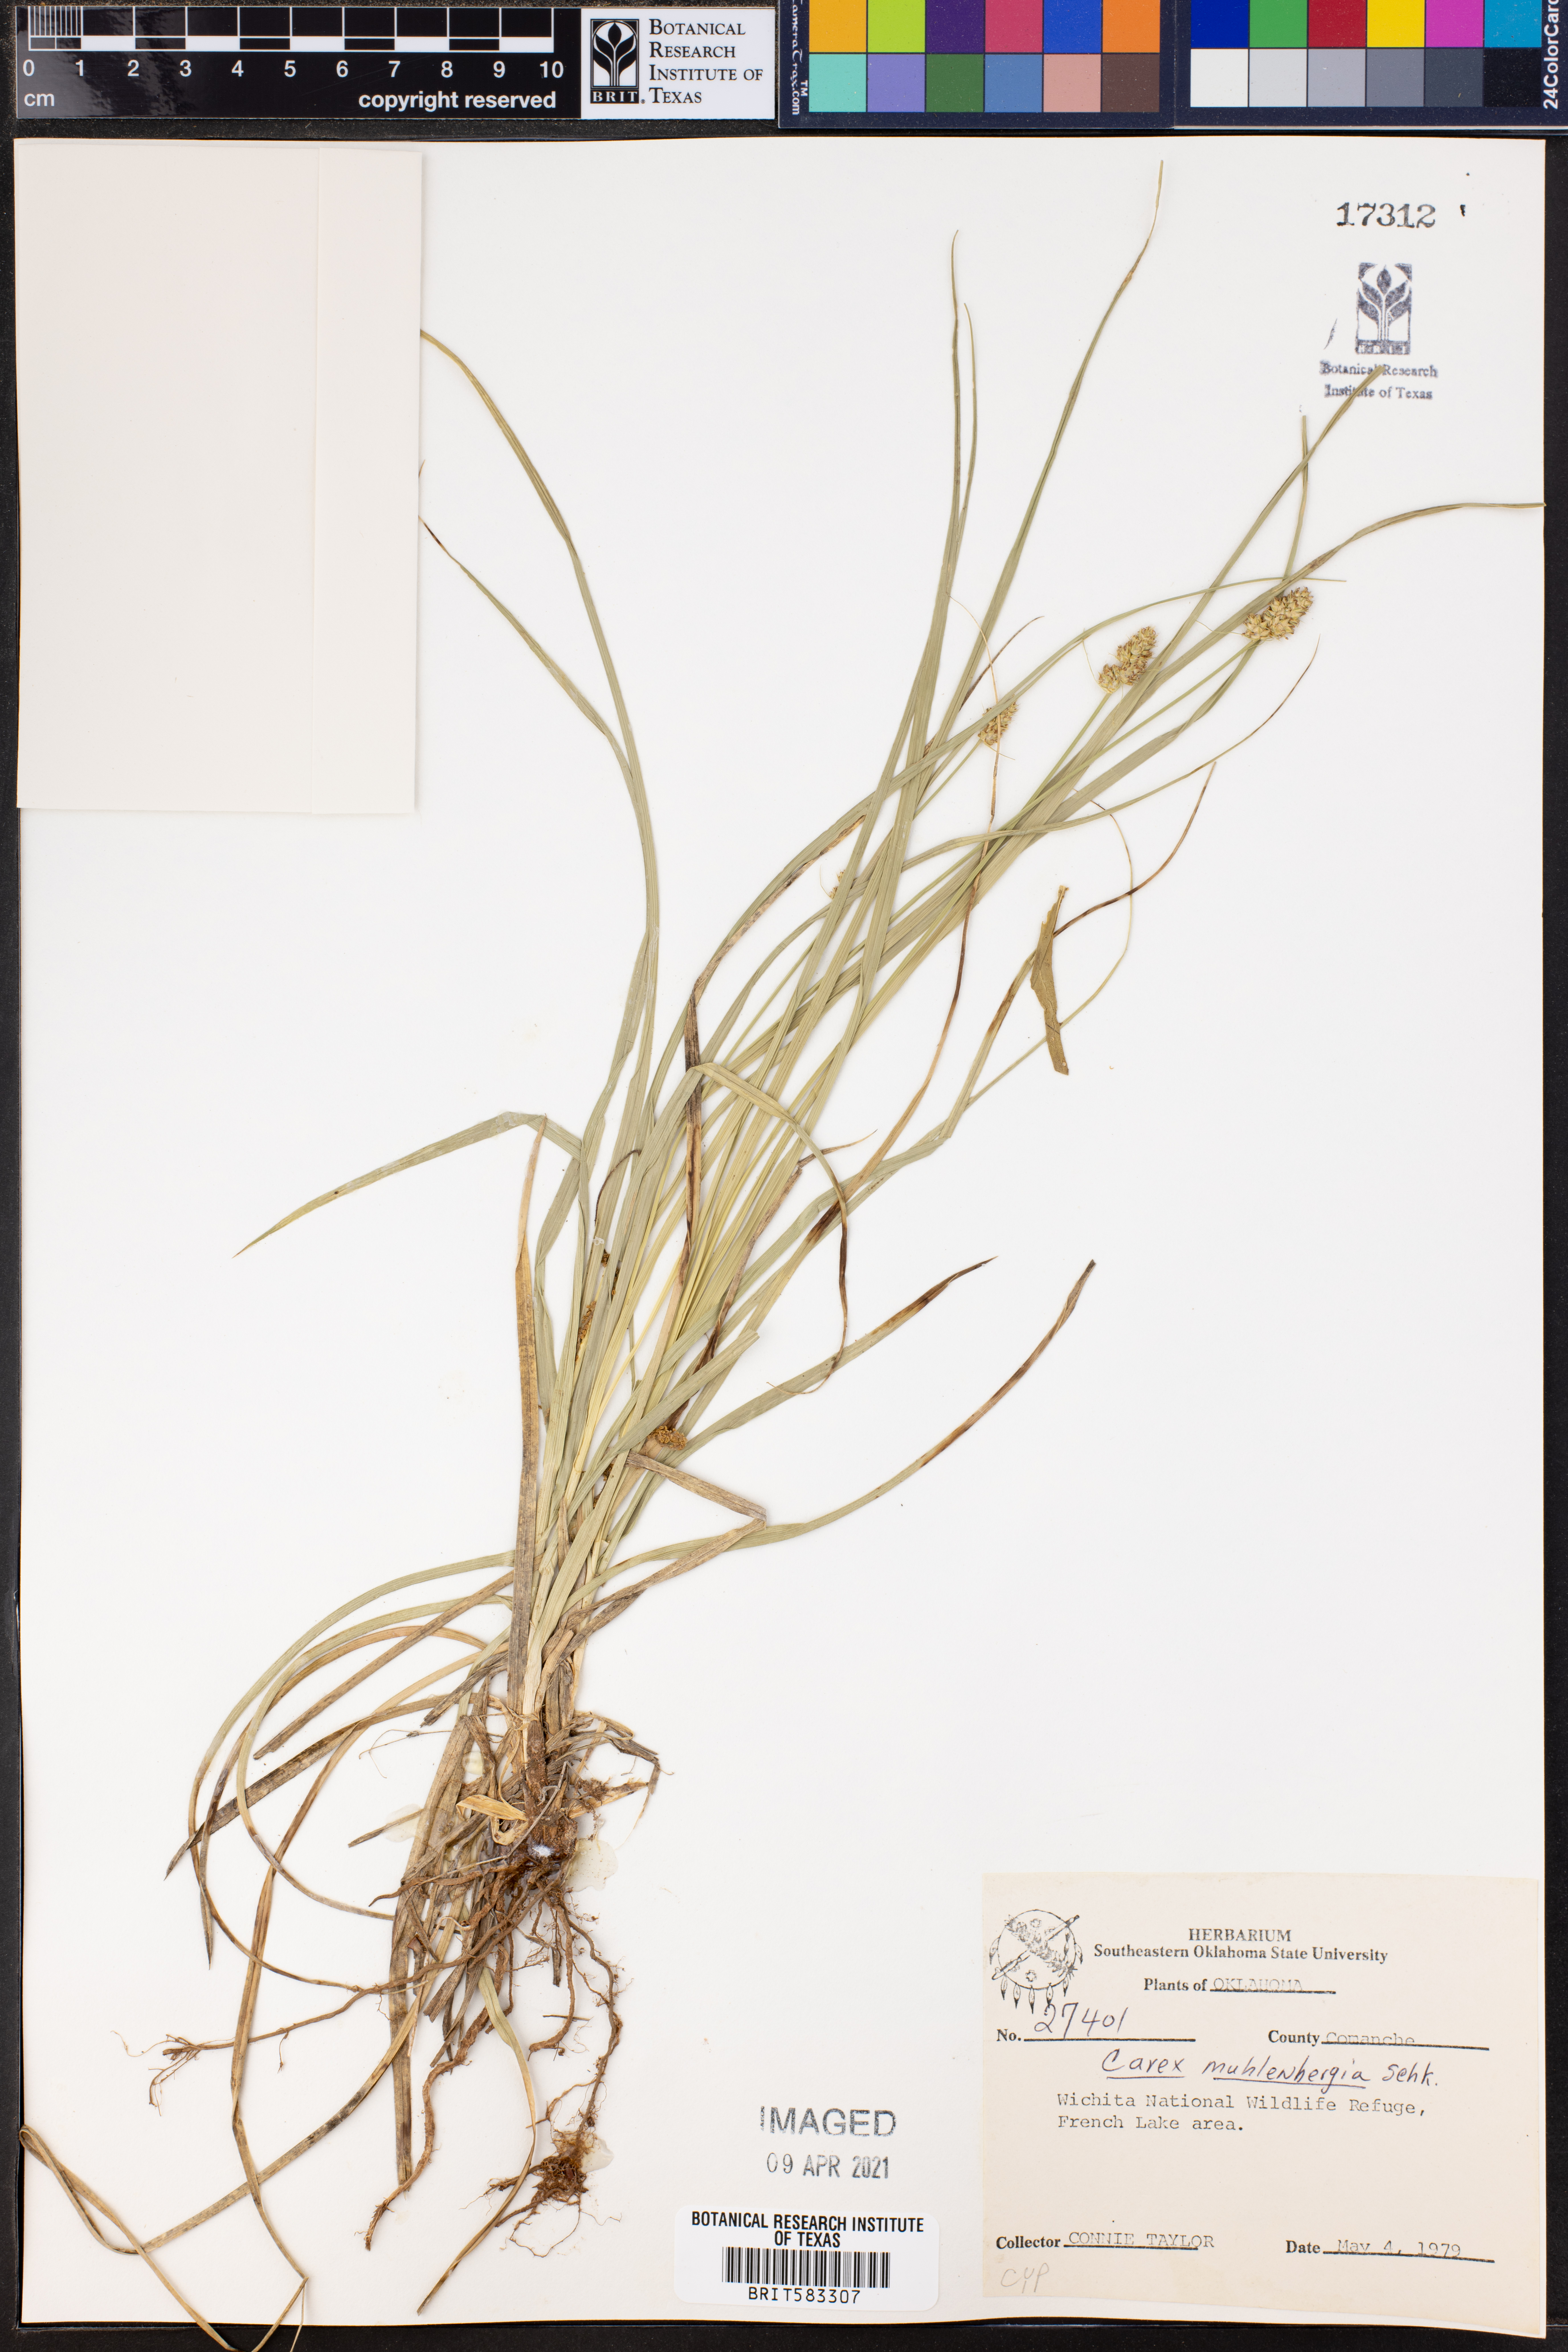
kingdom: Plantae
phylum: Tracheophyta
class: Liliopsida
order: Poales
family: Cyperaceae
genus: Carex
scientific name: Carex vulpinoidea
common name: American fox-sedge
